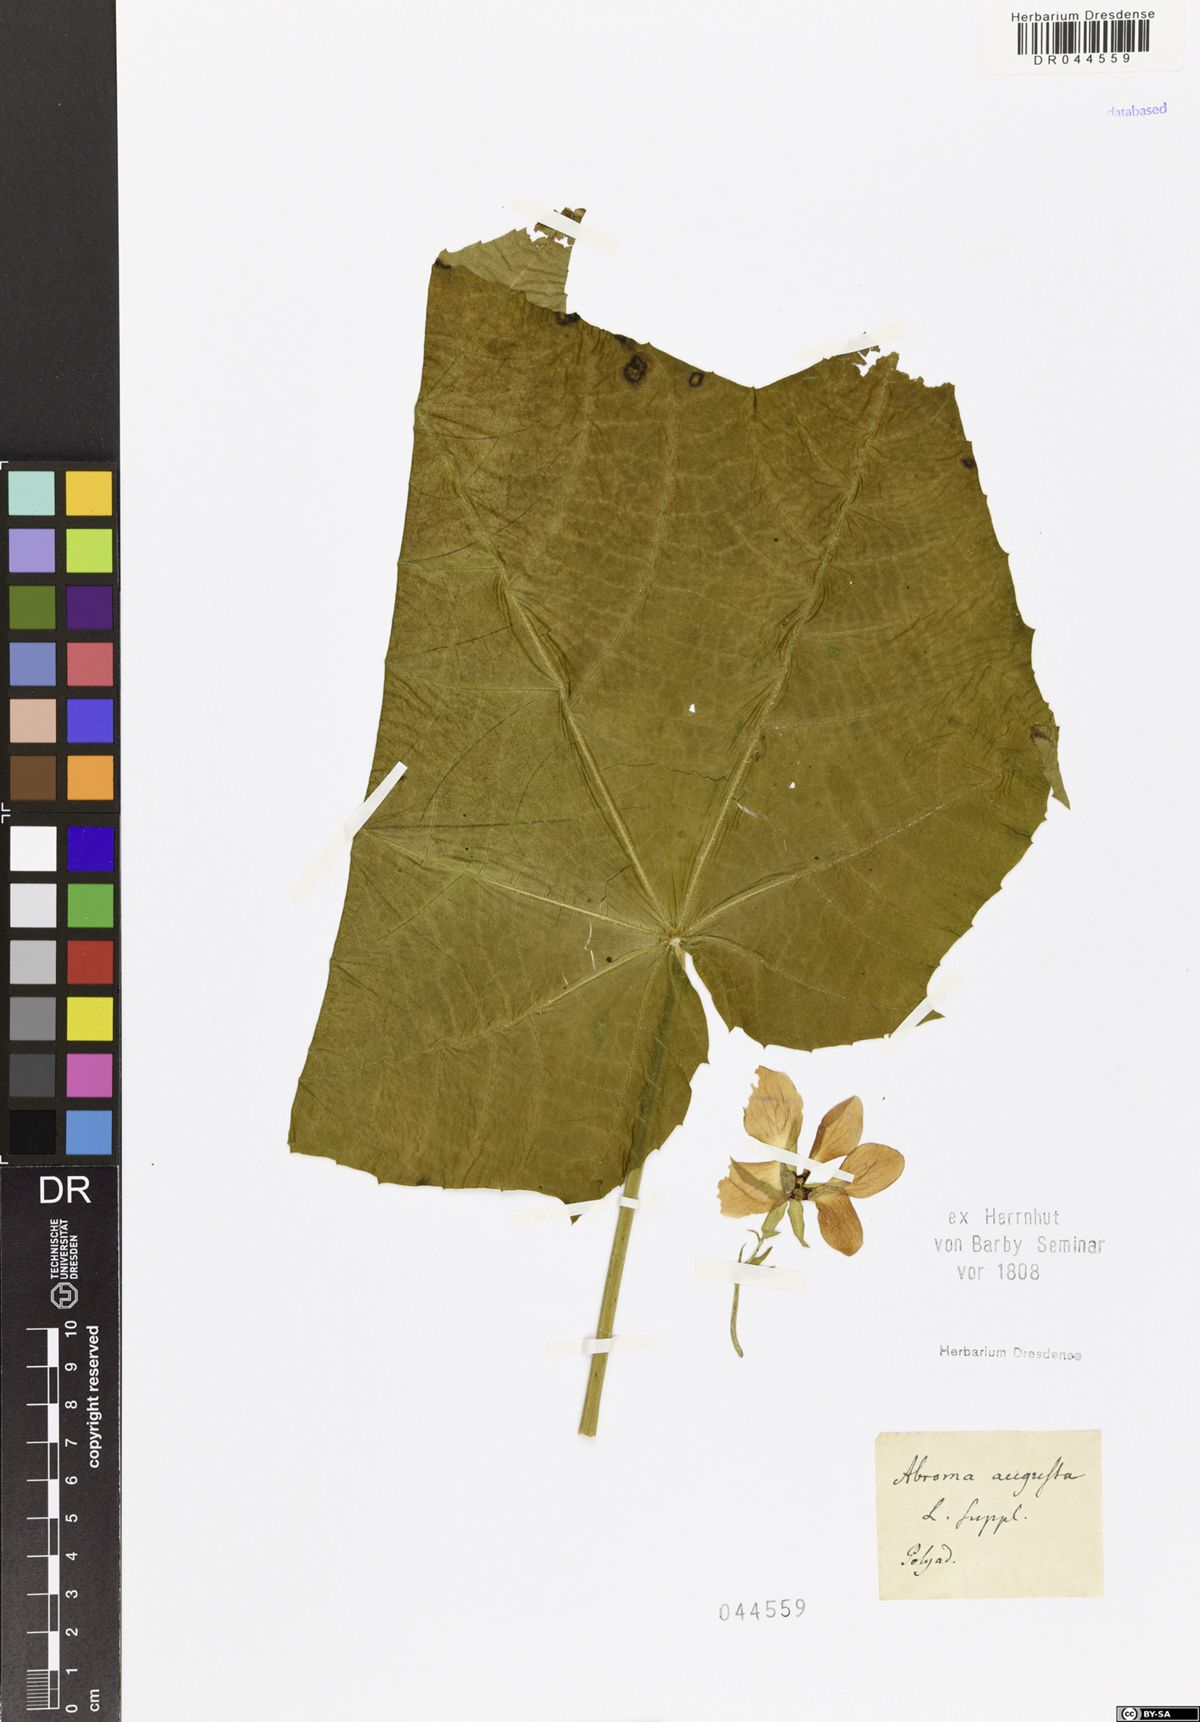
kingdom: Plantae
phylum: Tracheophyta
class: Magnoliopsida
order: Malvales
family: Malvaceae
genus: Abroma
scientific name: Abroma augustum
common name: Devil's-cotton
